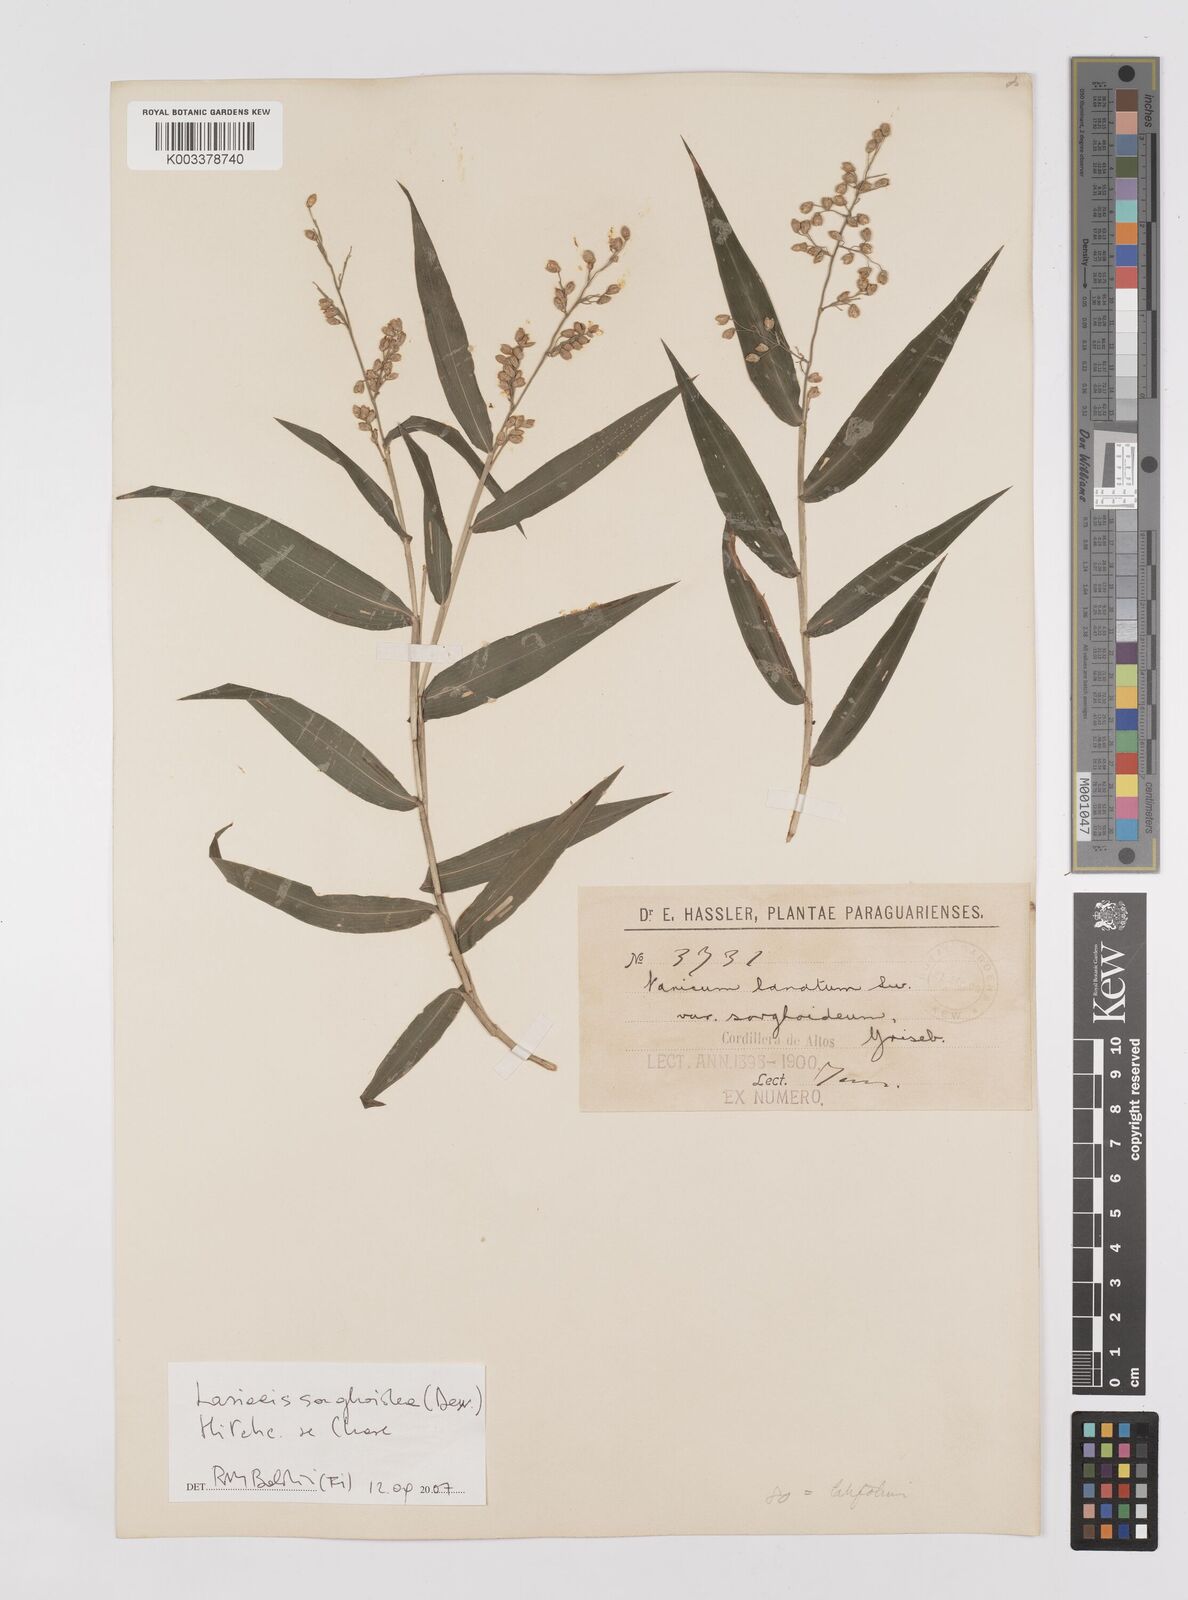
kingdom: Plantae
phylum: Tracheophyta
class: Liliopsida
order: Poales
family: Poaceae
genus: Lasiacis
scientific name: Lasiacis maculata
